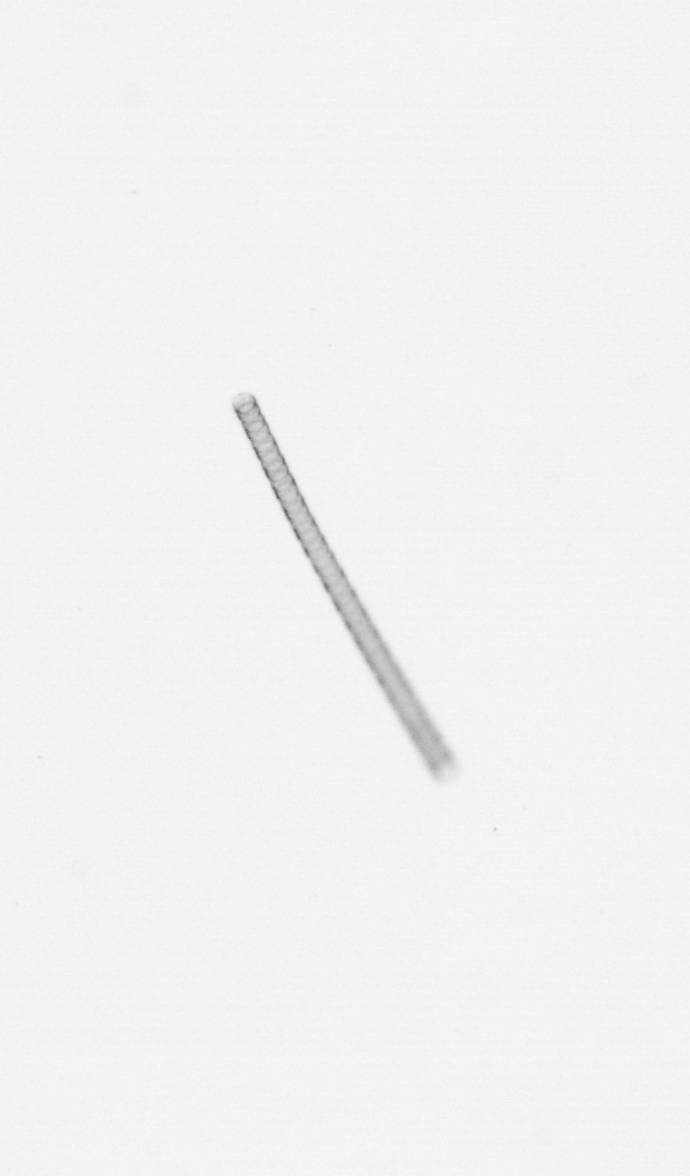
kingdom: Chromista
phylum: Ochrophyta
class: Bacillariophyceae
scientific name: Bacillariophyceae
